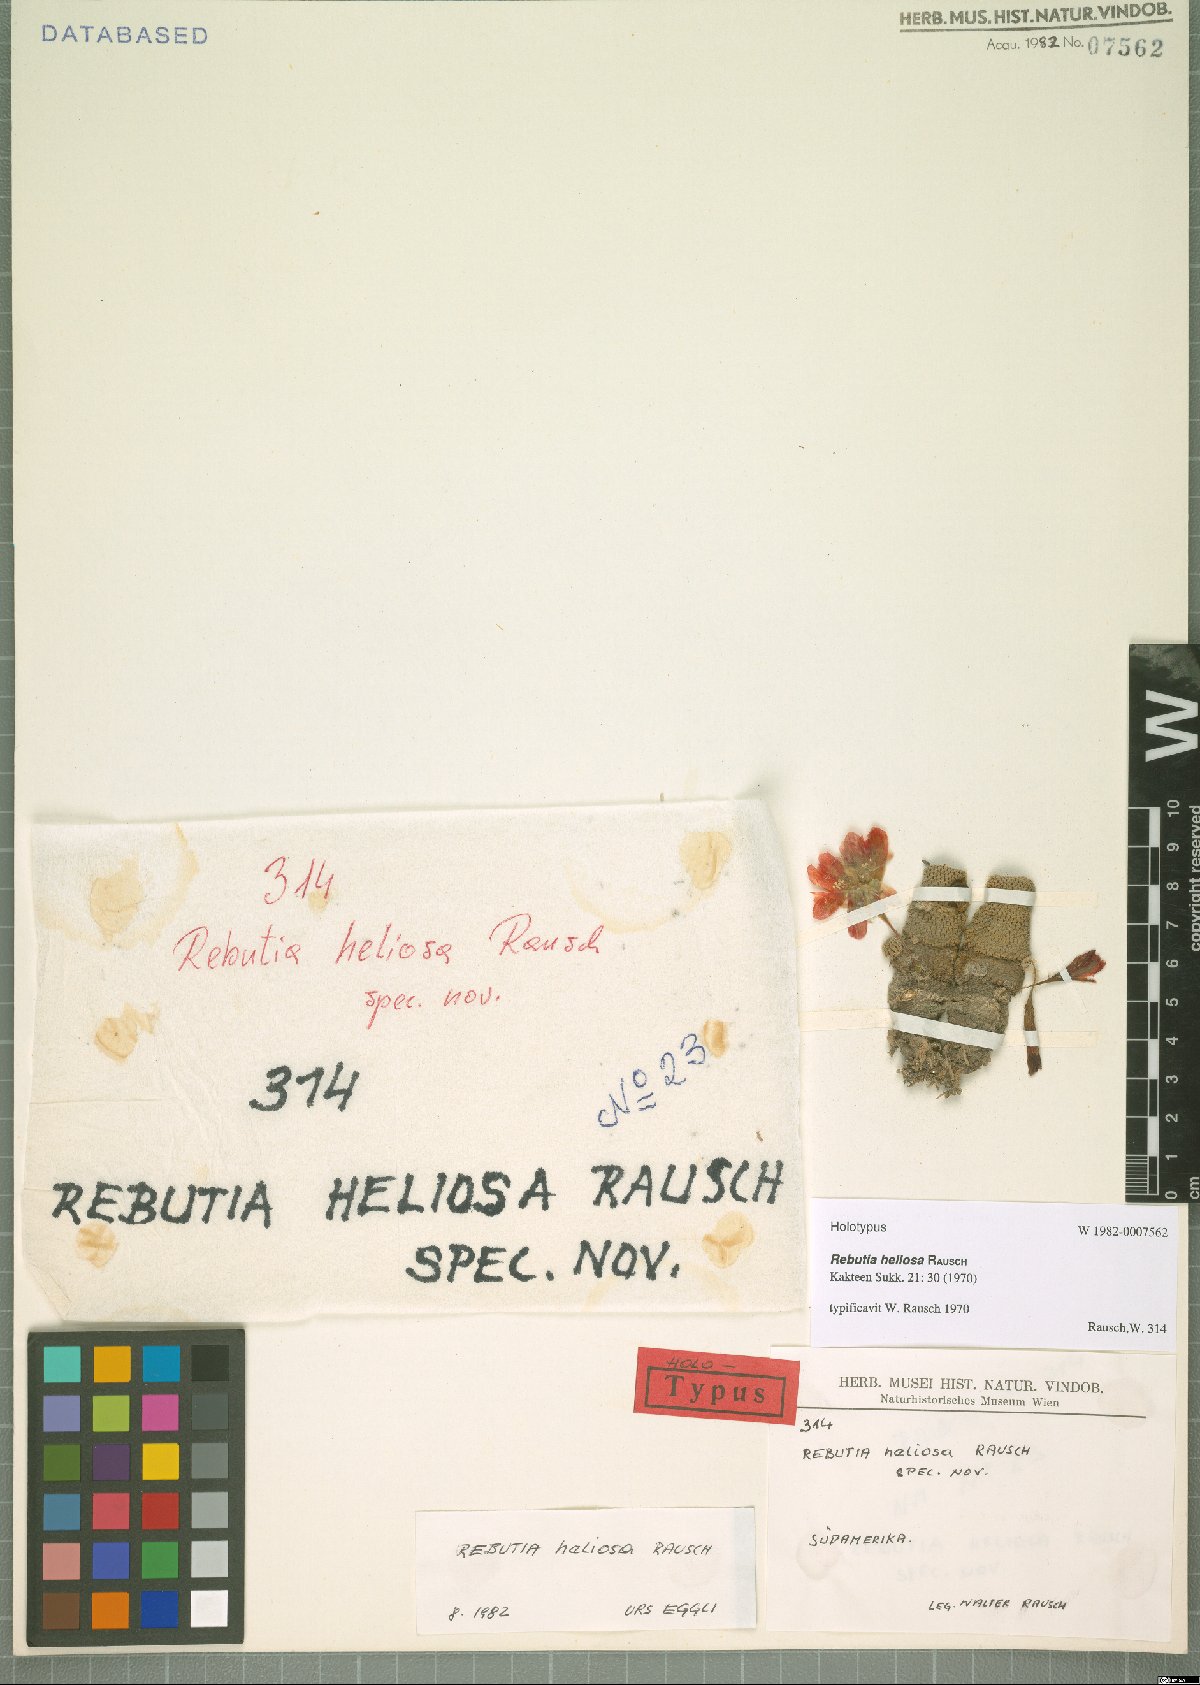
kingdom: Plantae
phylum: Tracheophyta
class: Magnoliopsida
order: Caryophyllales
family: Cactaceae
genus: Aylostera
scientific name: Aylostera deminuta
